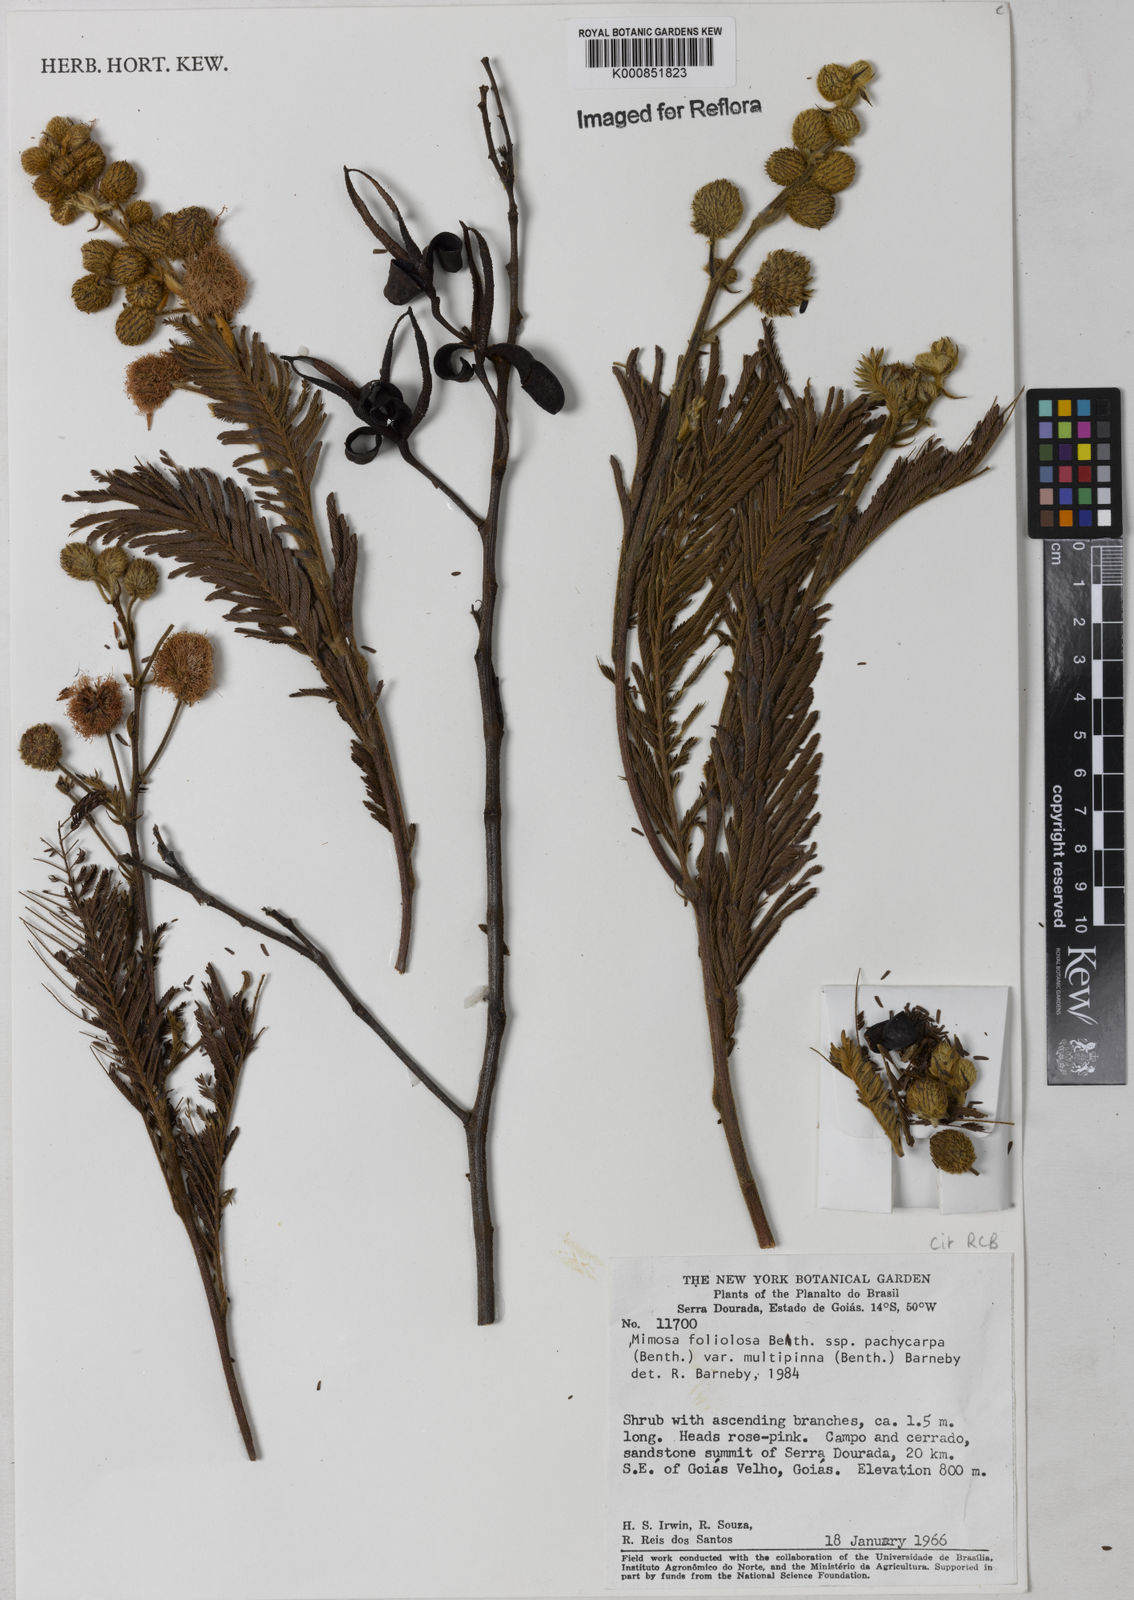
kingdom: Plantae
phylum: Tracheophyta
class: Magnoliopsida
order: Fabales
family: Fabaceae
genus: Mimosa
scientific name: Mimosa foliolosa
